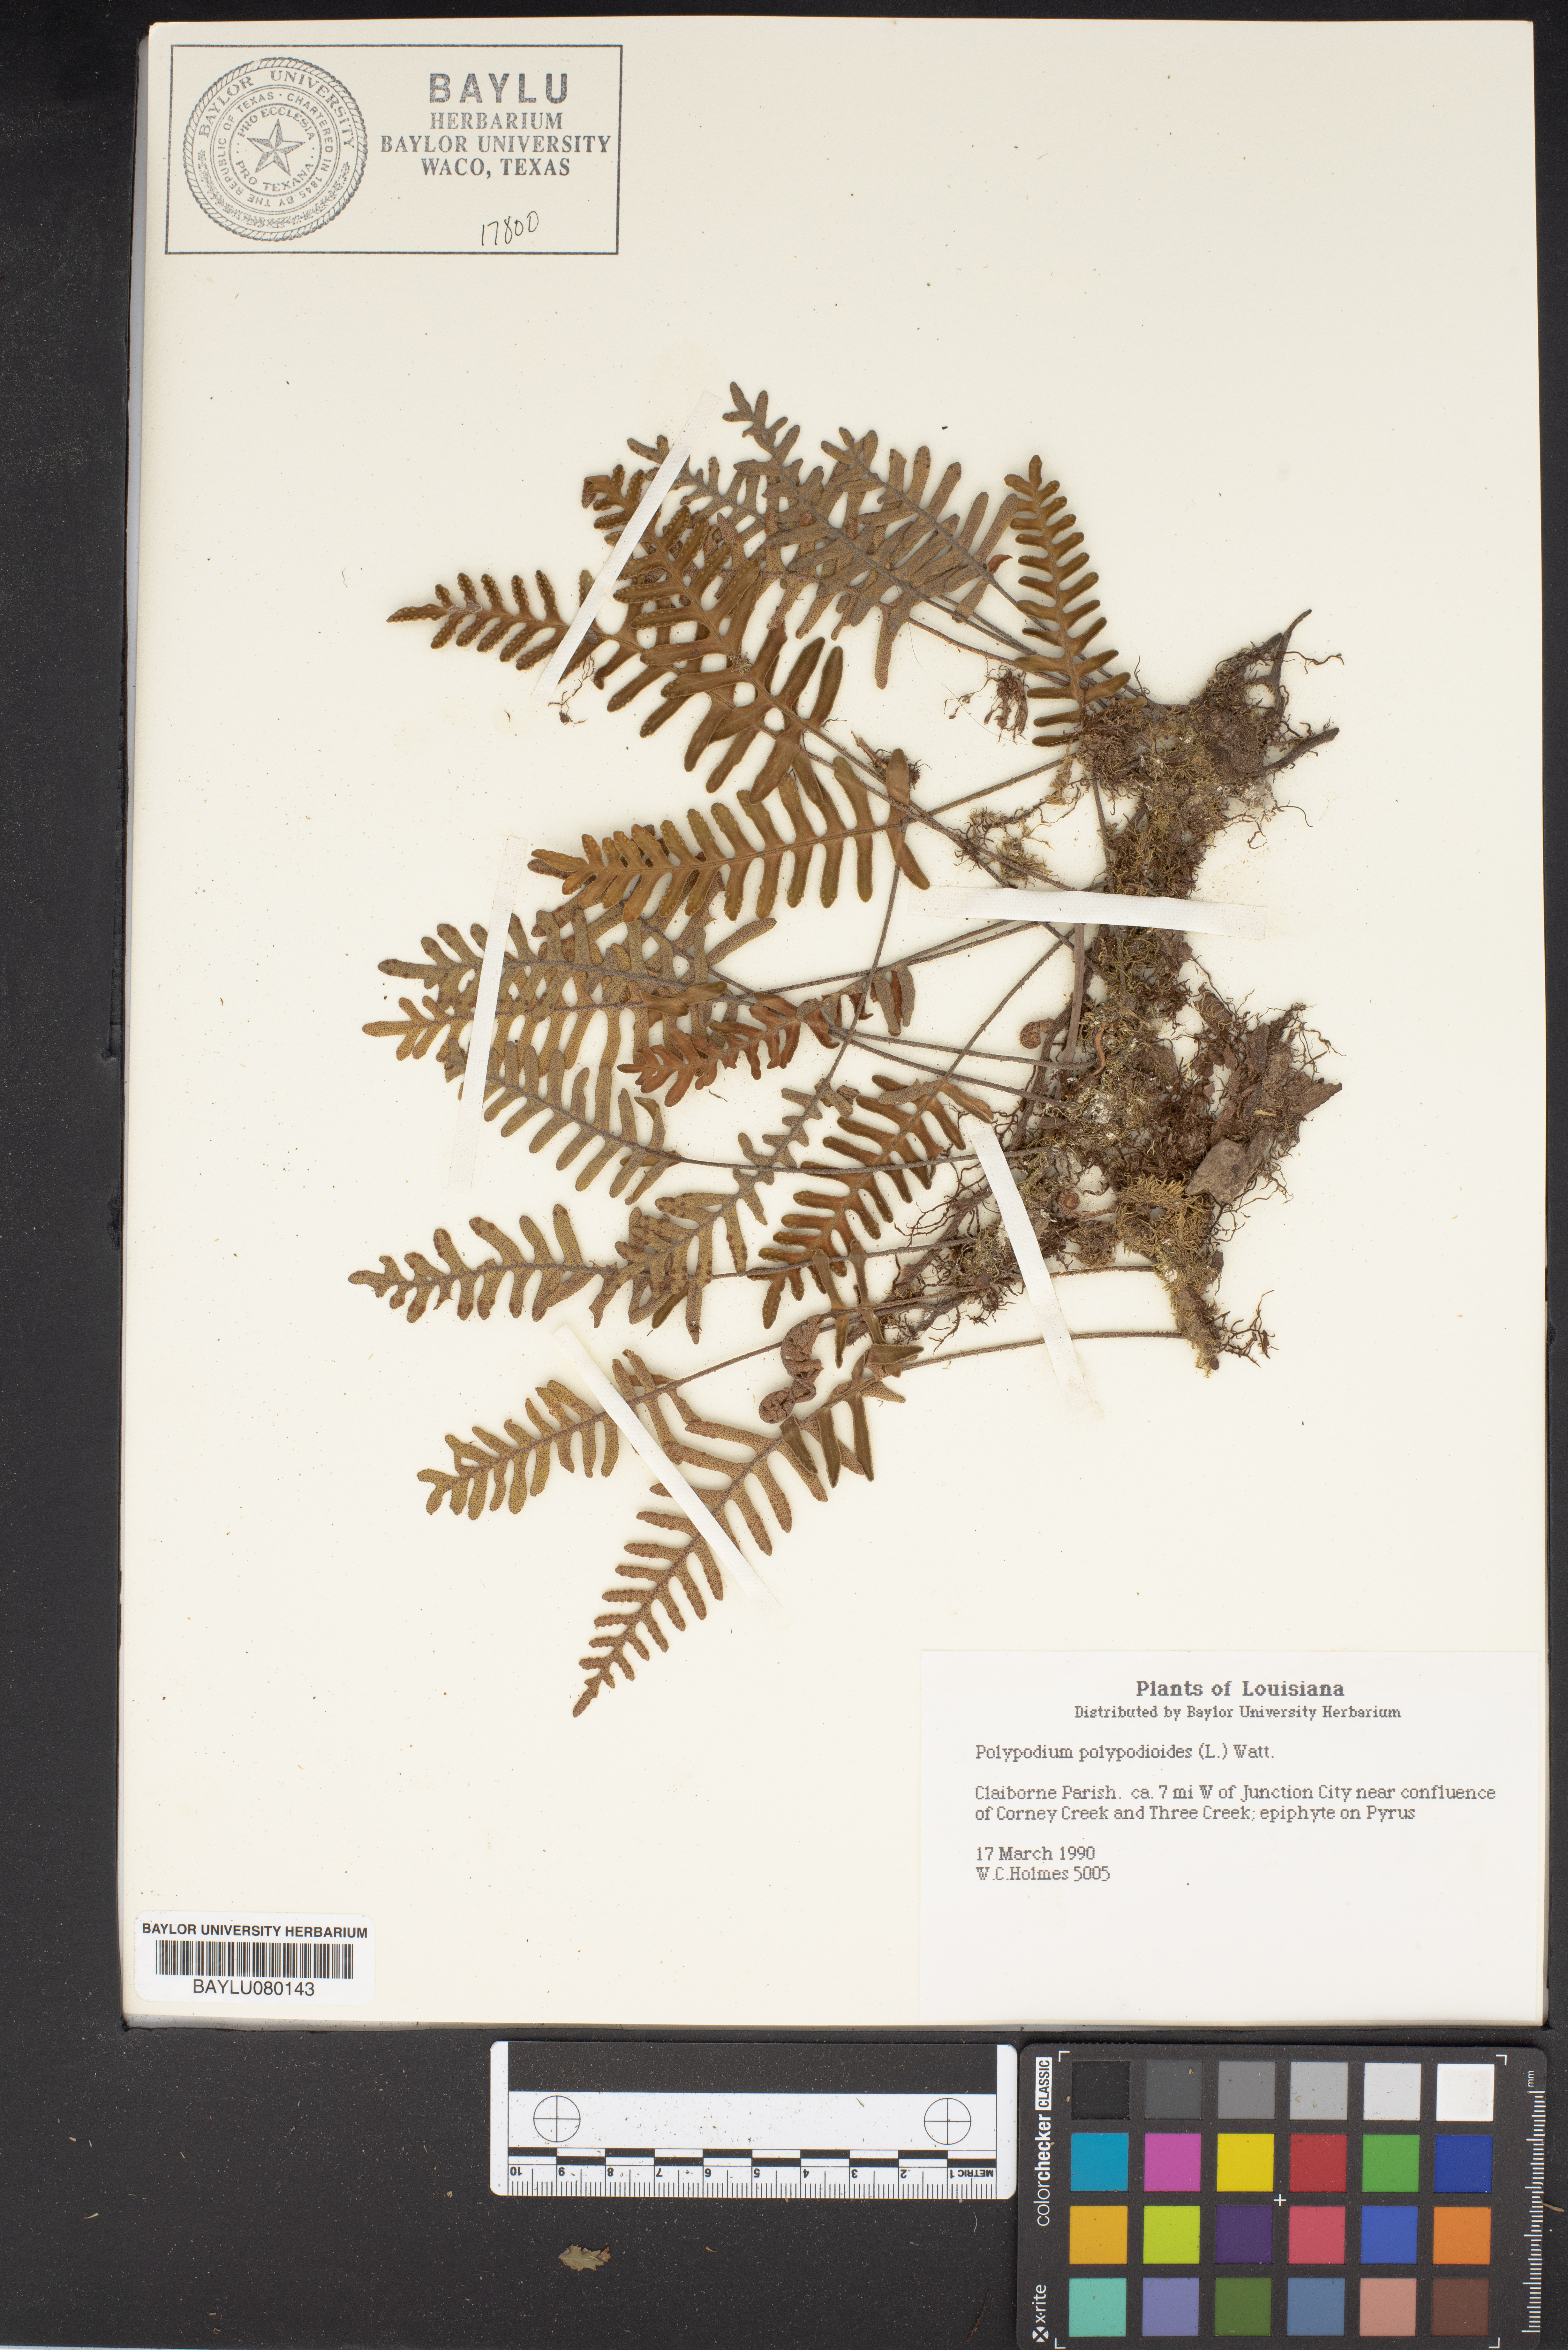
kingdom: Plantae
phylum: Tracheophyta
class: Polypodiopsida
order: Polypodiales
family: Polypodiaceae
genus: Pleopeltis
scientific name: Pleopeltis polypodioides
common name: Resurrection fern
